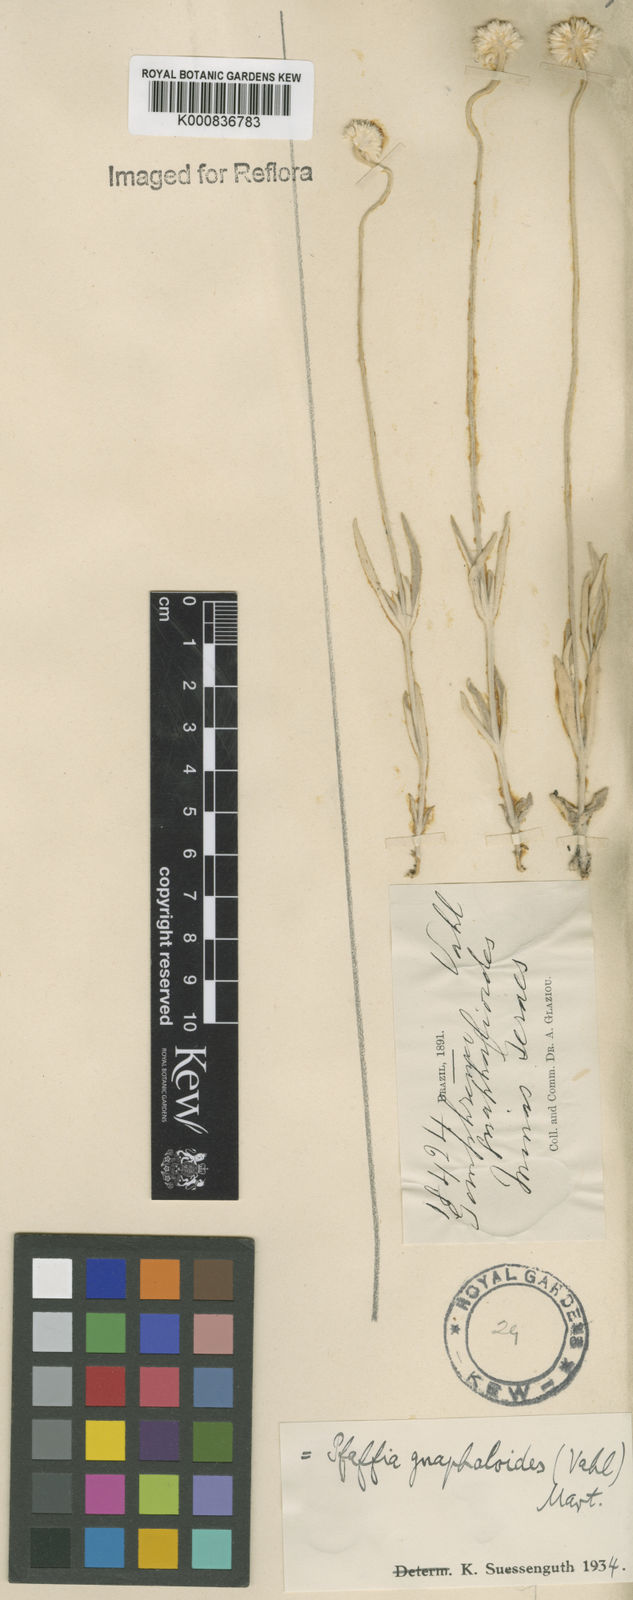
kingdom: Plantae
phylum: Tracheophyta
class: Magnoliopsida
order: Caryophyllales
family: Amaranthaceae
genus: Pfaffia
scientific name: Pfaffia
